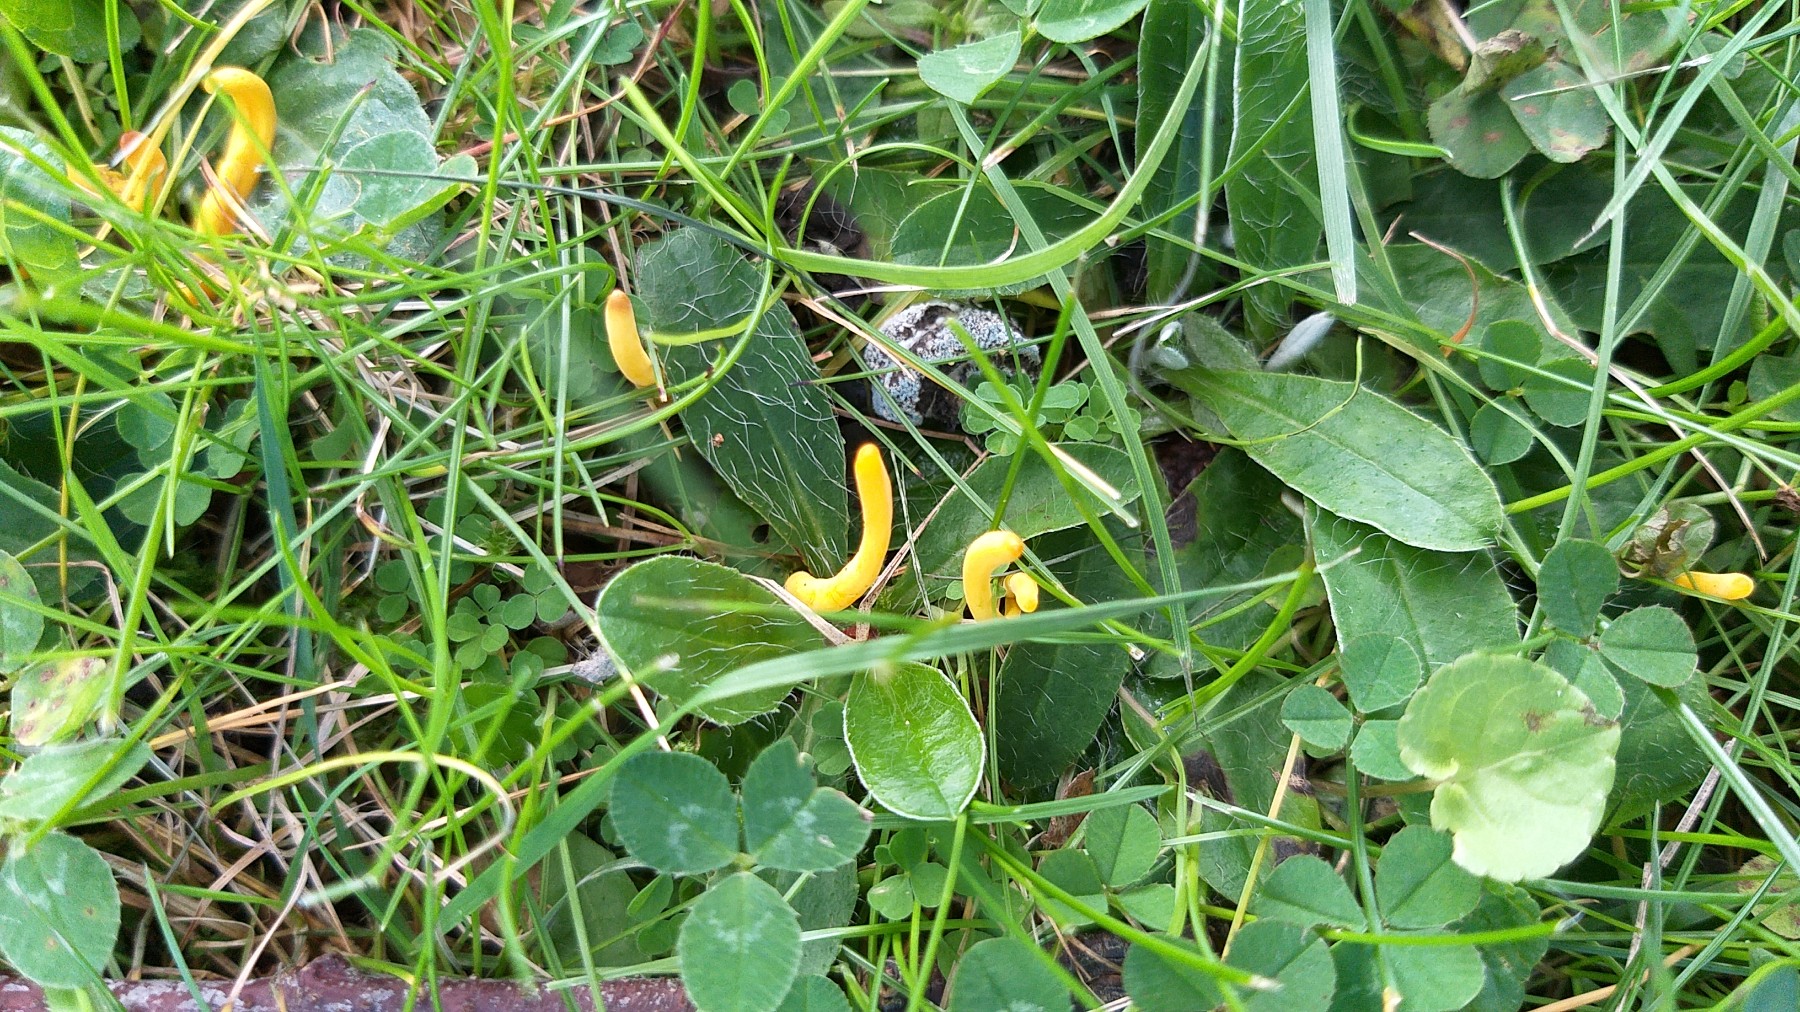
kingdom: Fungi
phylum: Basidiomycota
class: Agaricomycetes
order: Agaricales
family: Clavariaceae
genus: Clavulinopsis
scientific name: Clavulinopsis
